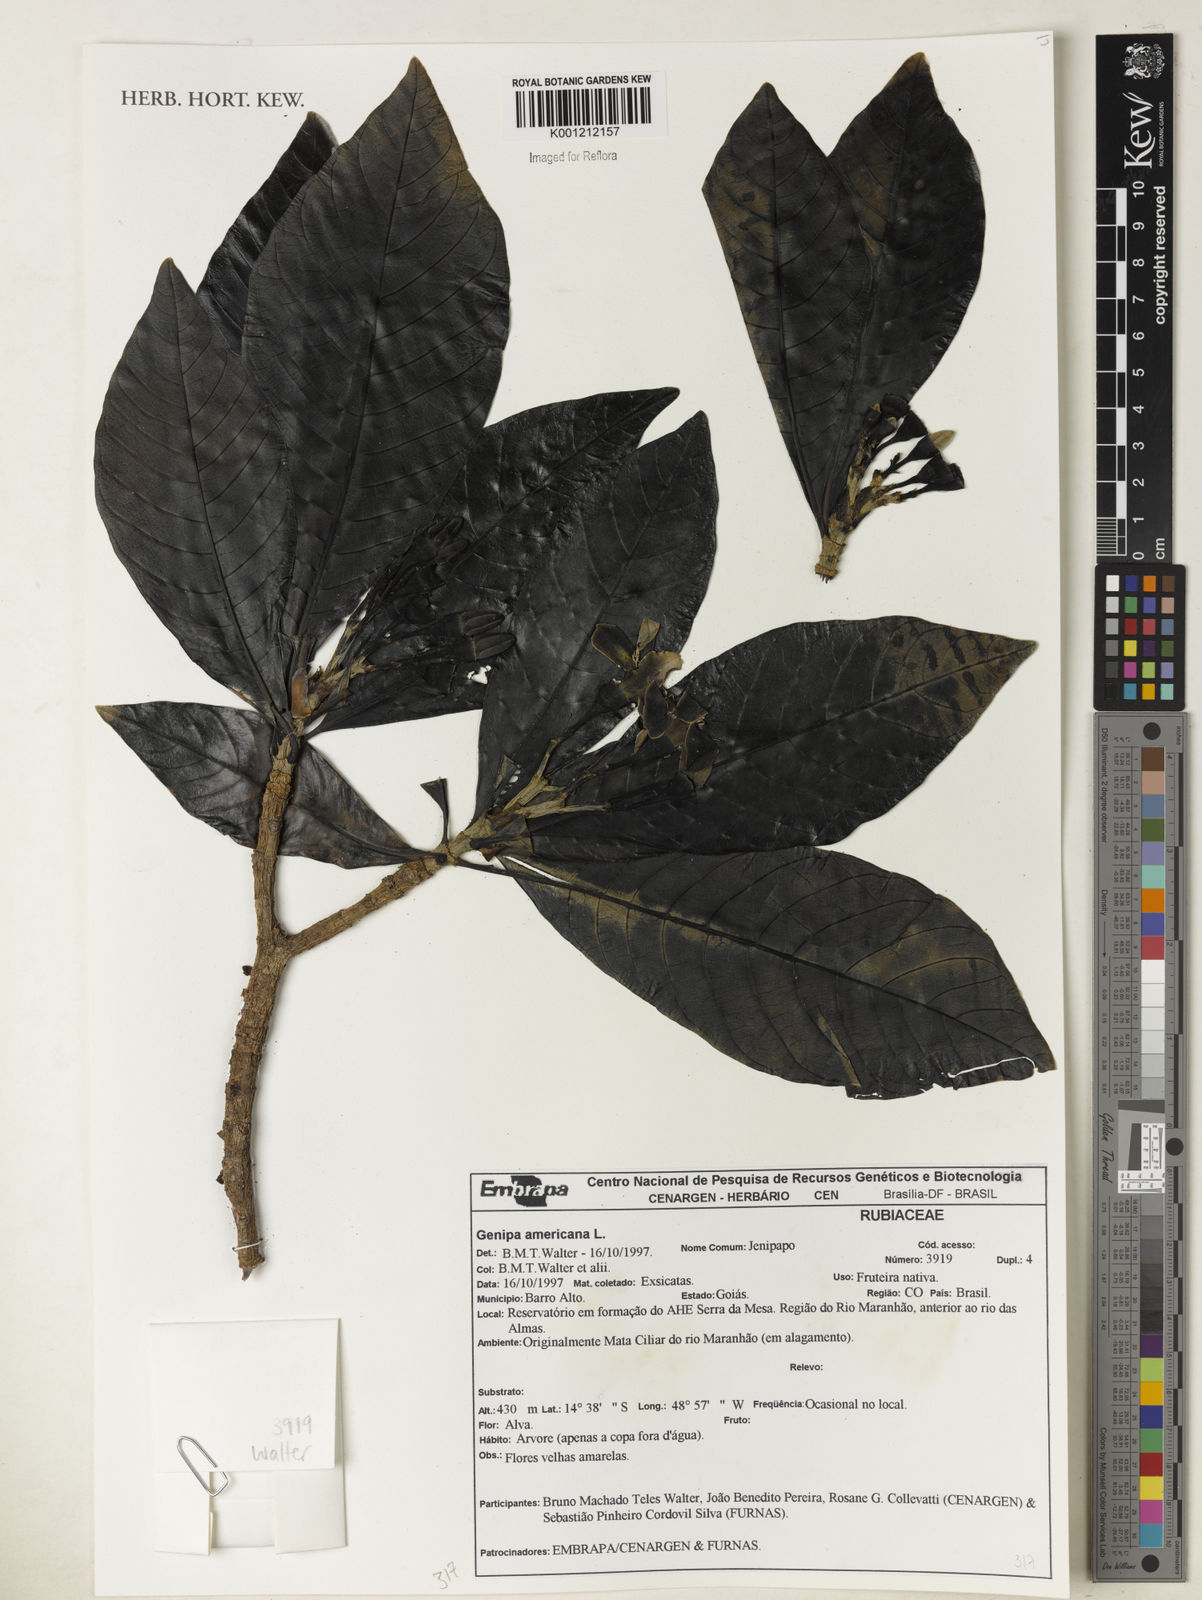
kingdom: Plantae
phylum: Tracheophyta
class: Magnoliopsida
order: Gentianales
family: Rubiaceae
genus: Genipa
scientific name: Genipa americana
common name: Genipap
